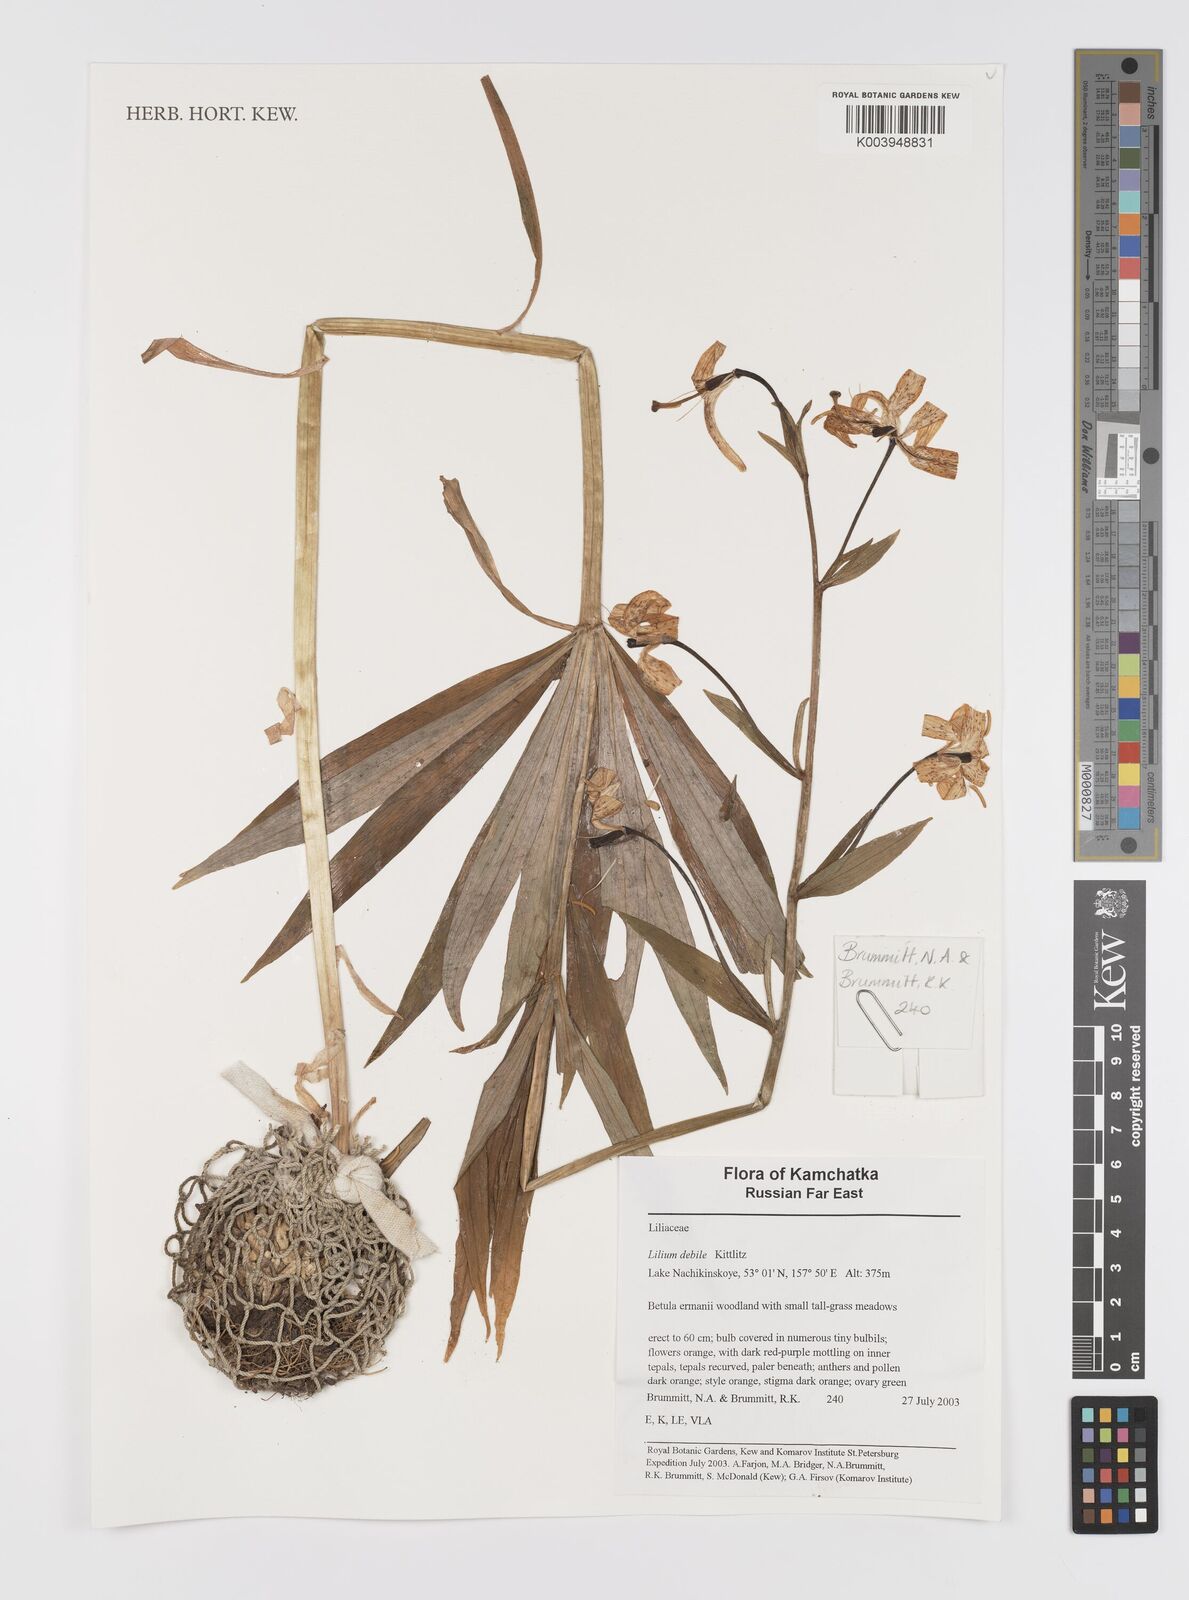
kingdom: Plantae
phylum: Tracheophyta
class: Liliopsida
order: Liliales
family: Liliaceae
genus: Lilium
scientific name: Lilium debile
